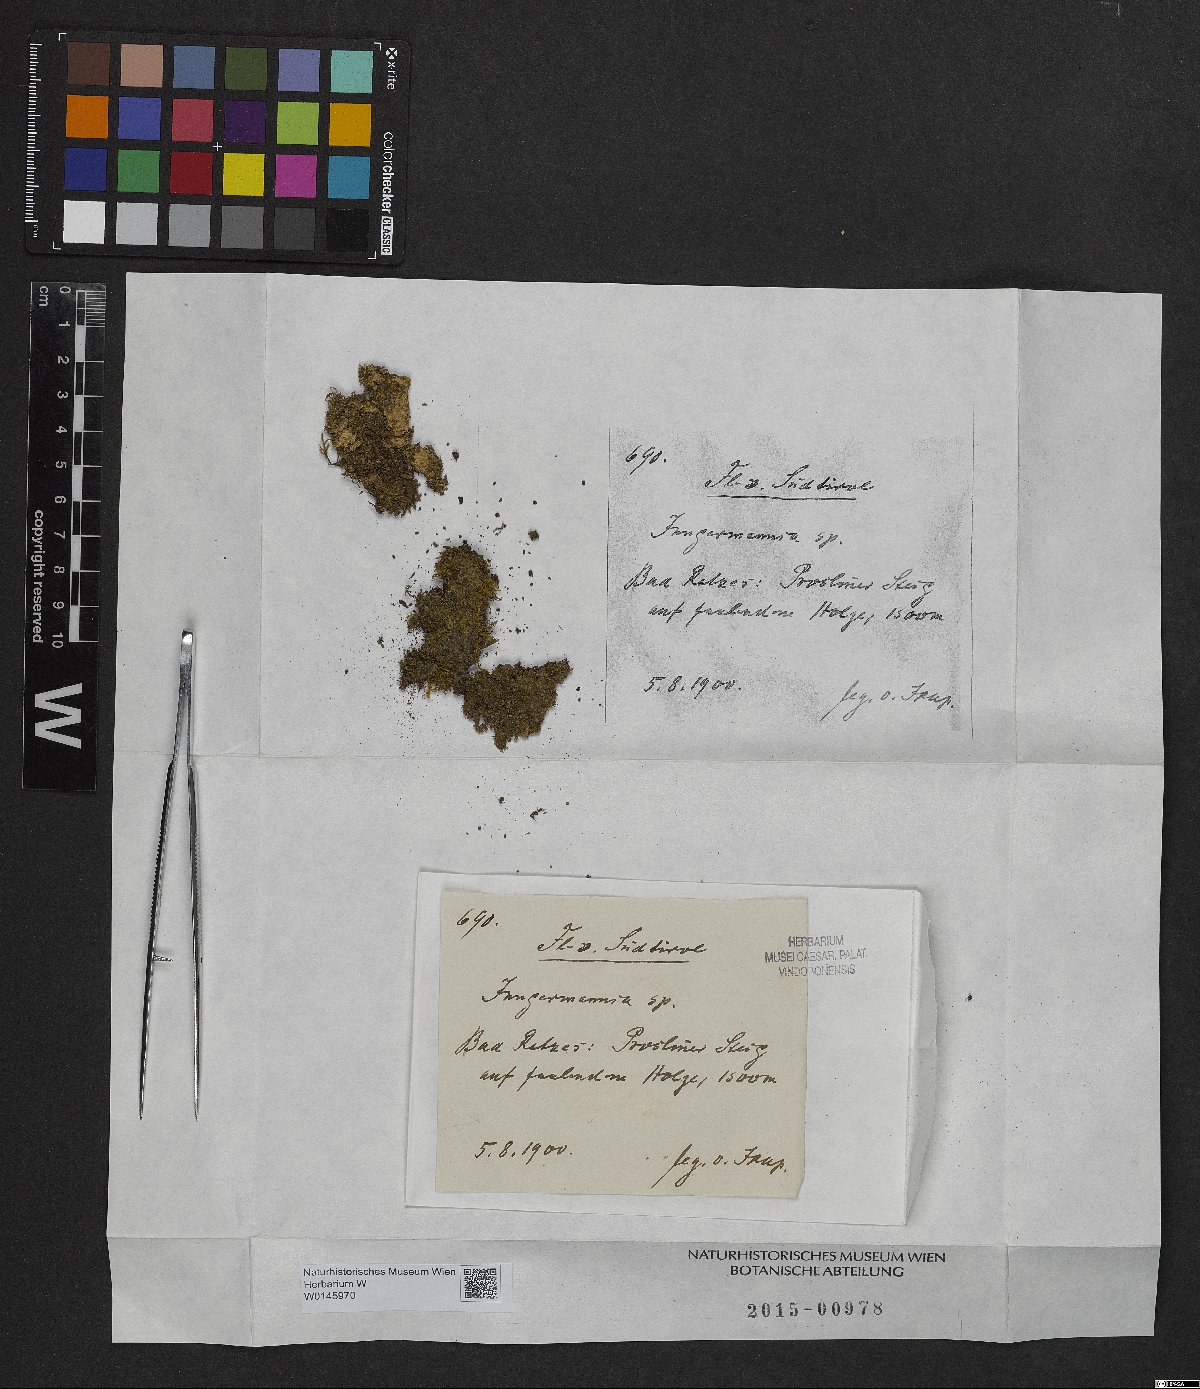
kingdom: Plantae
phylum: Marchantiophyta
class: Jungermanniopsida
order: Jungermanniales
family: Jungermanniaceae
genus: Jungermannia
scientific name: Jungermannia
